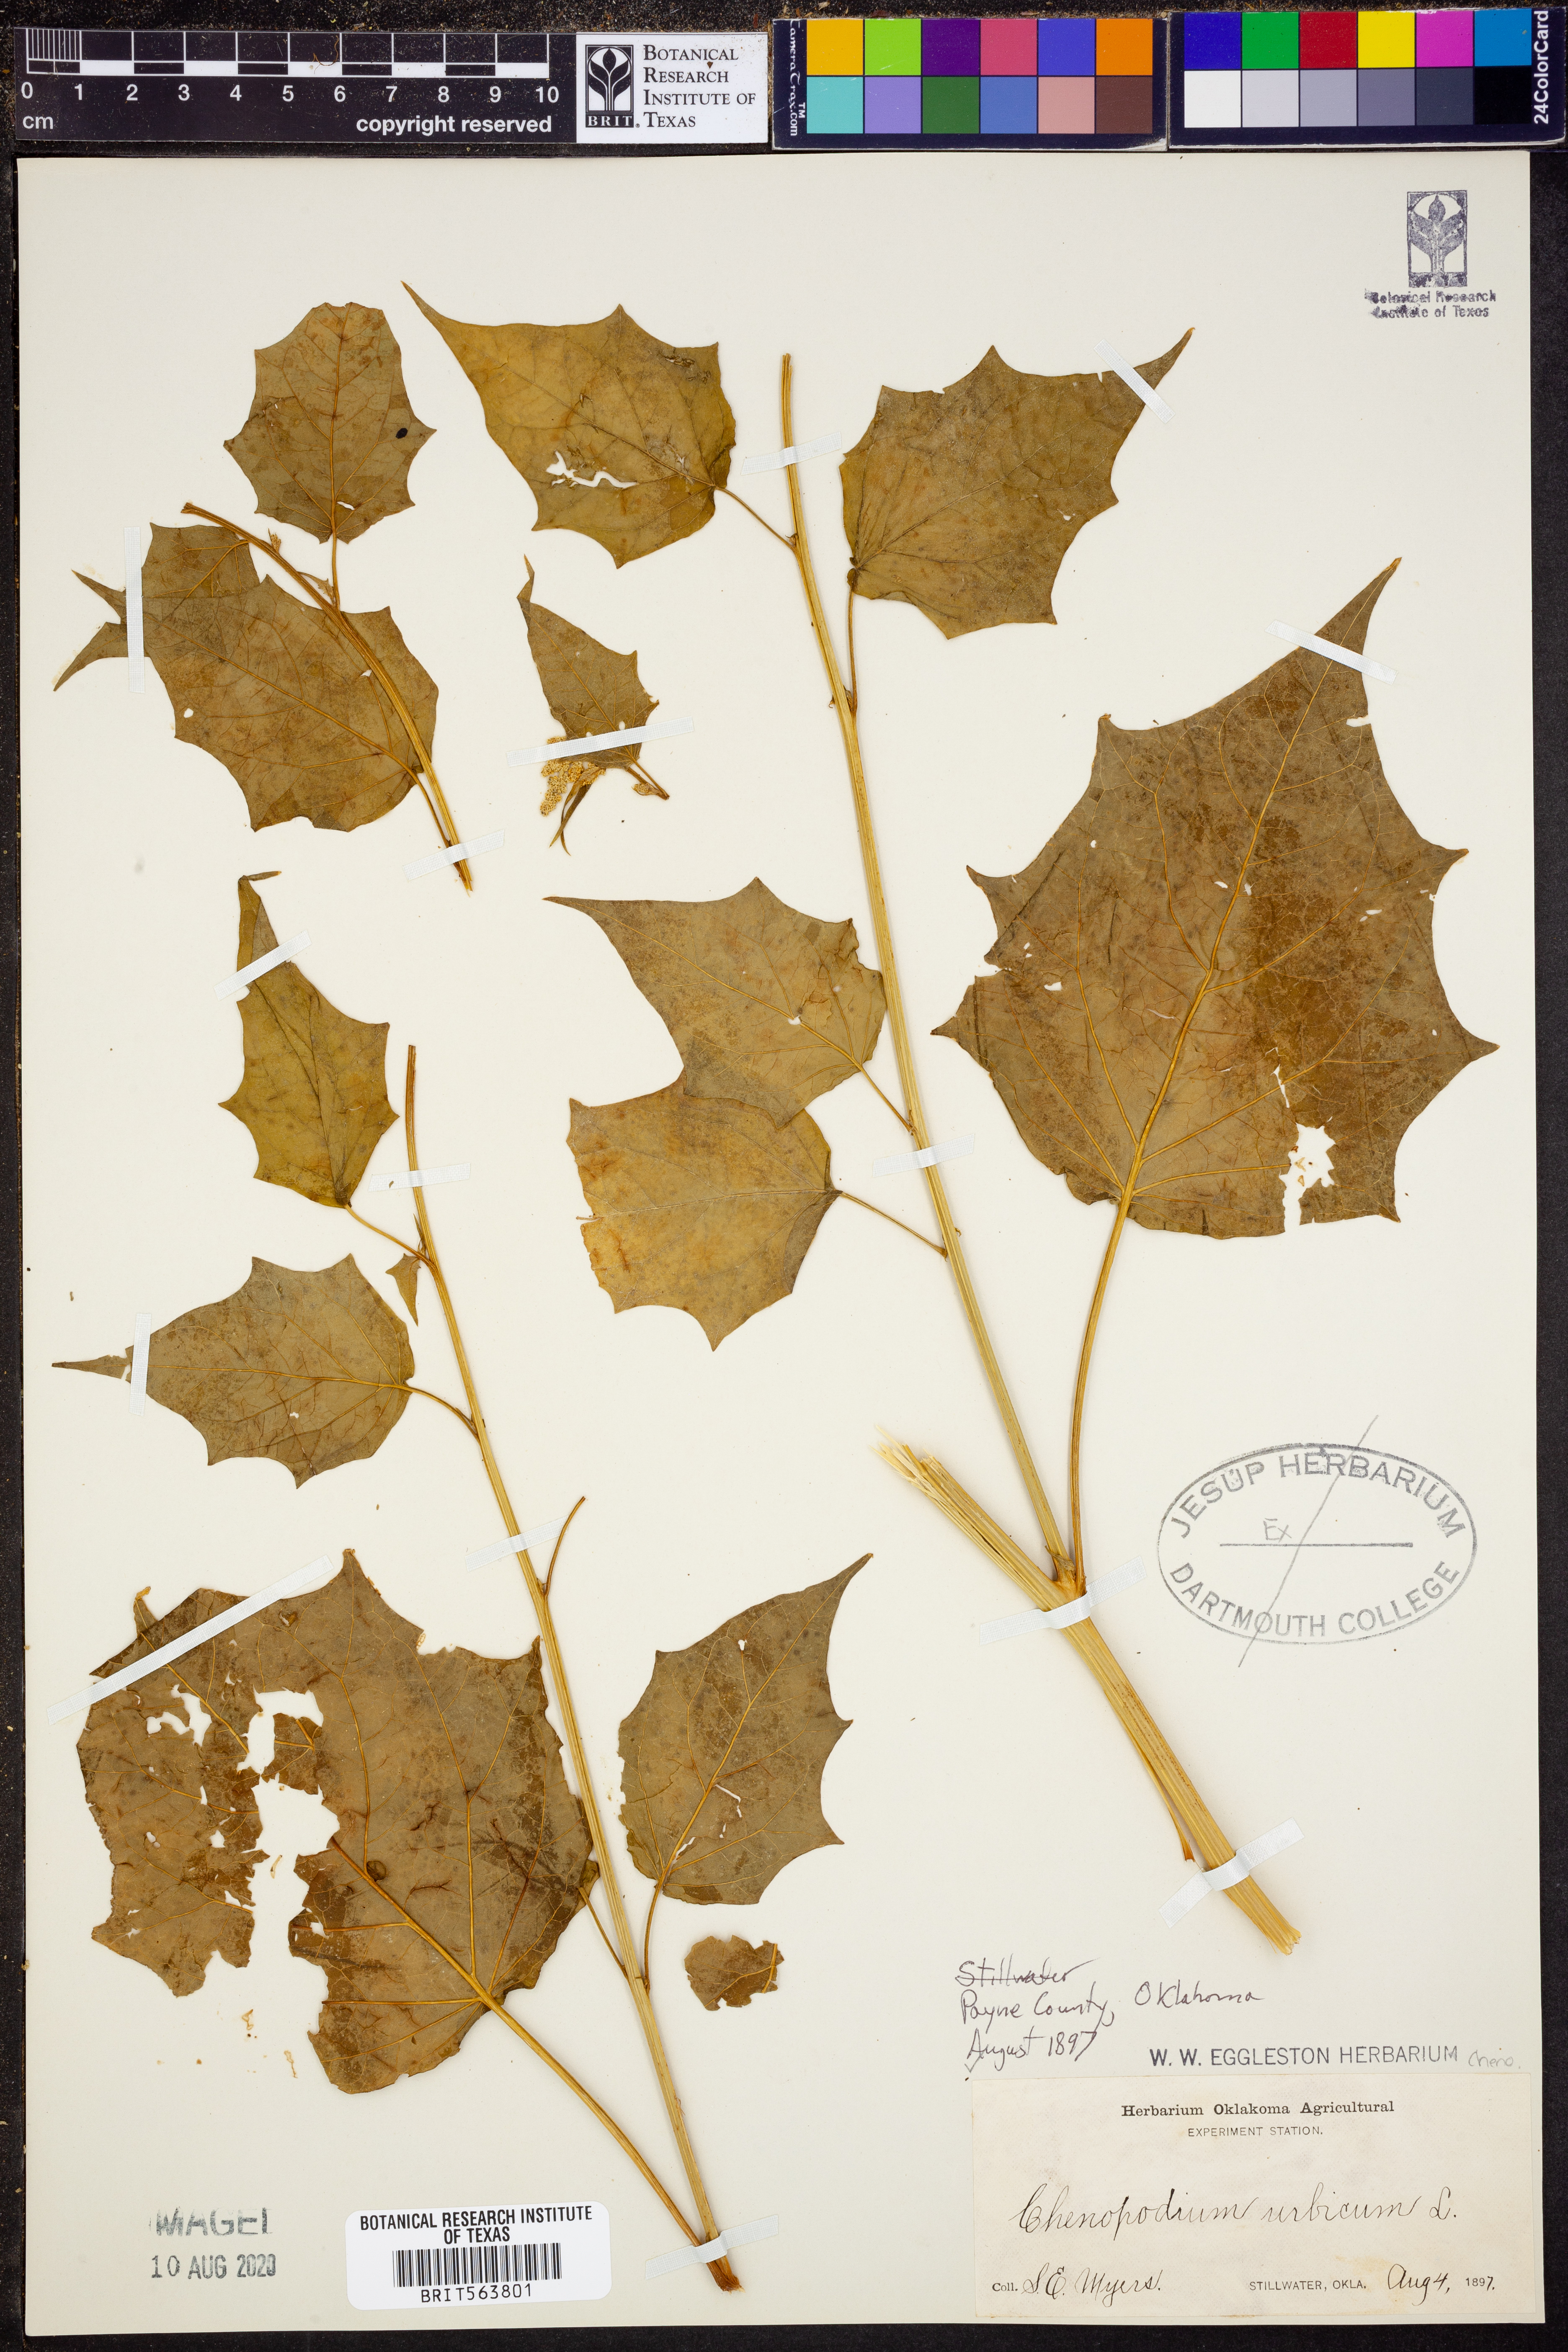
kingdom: Plantae
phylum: Tracheophyta
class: Magnoliopsida
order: Caryophyllales
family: Amaranthaceae
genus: Oxybasis
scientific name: Oxybasis urbica
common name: City goosefoot
